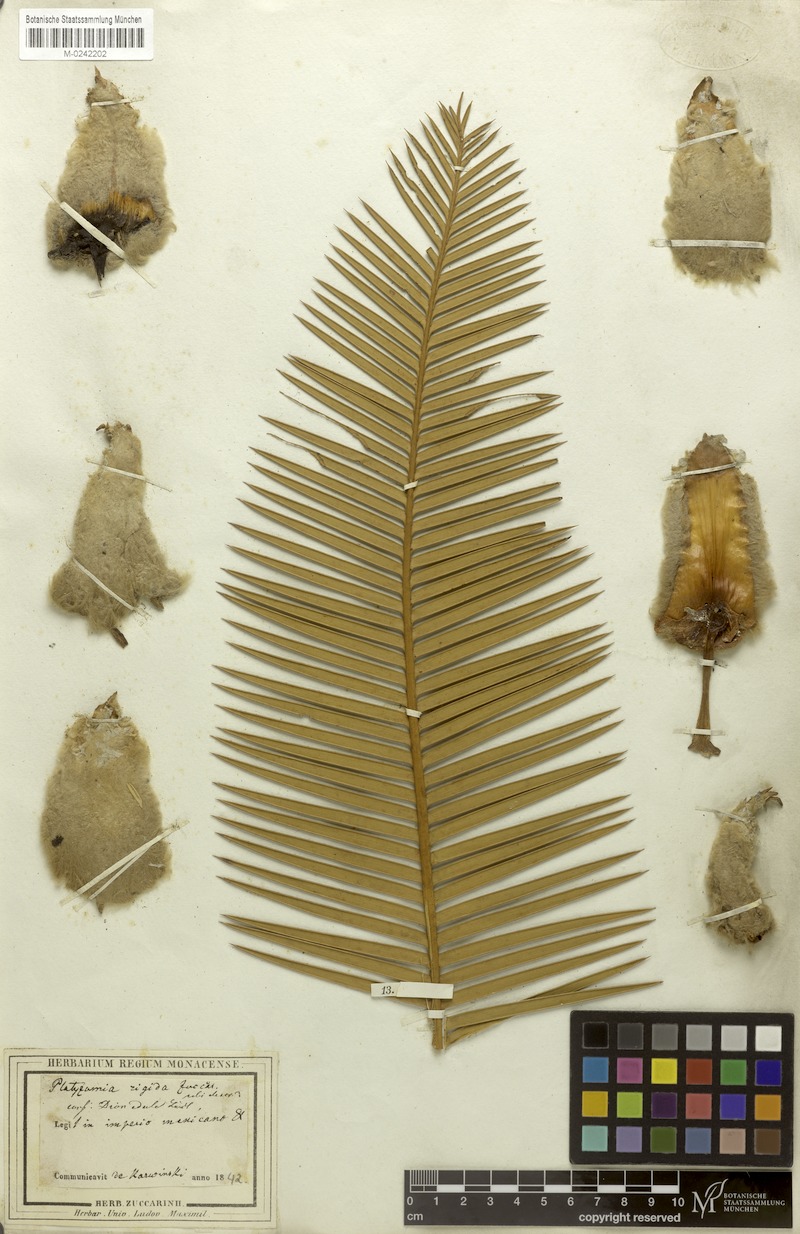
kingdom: Plantae
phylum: Tracheophyta
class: Cycadopsida
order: Cycadales
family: Zamiaceae
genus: Dioon
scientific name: Dioon edule
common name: Edible-seed cycas
